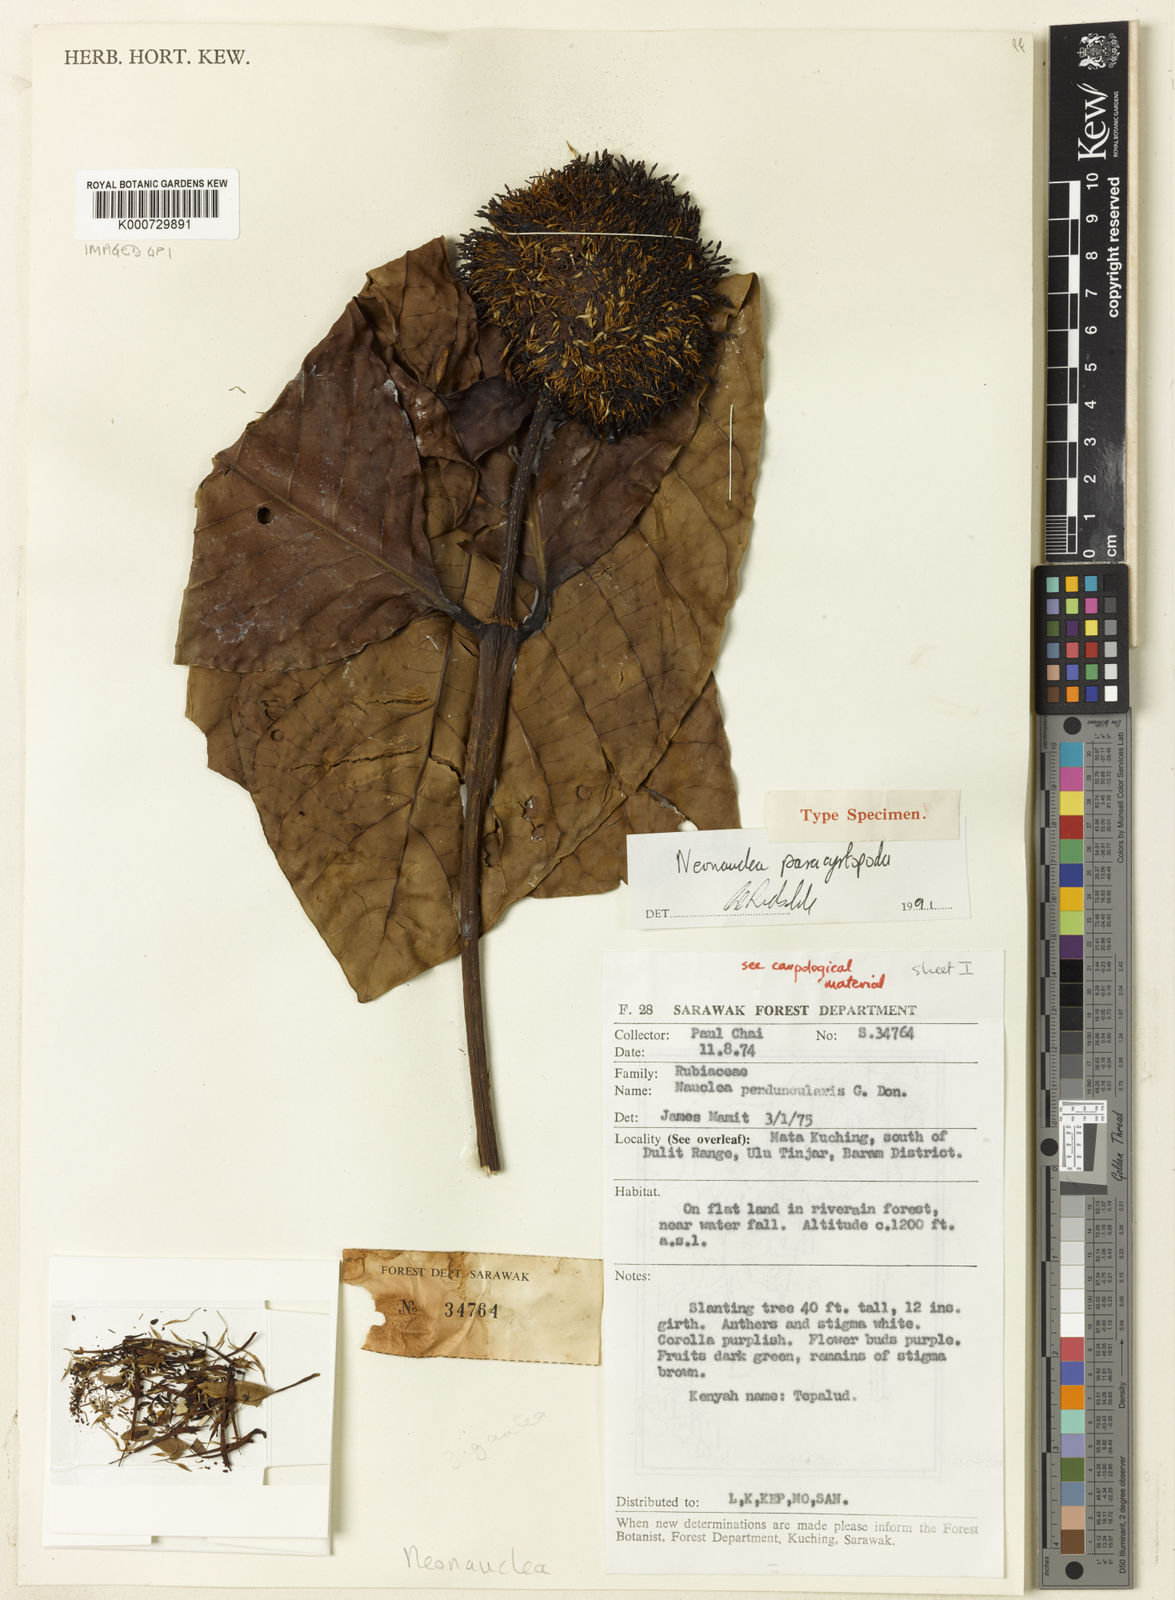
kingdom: Plantae
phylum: Tracheophyta
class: Magnoliopsida
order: Gentianales
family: Rubiaceae
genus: Neonauclea
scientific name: Neonauclea paracyrtopoda
